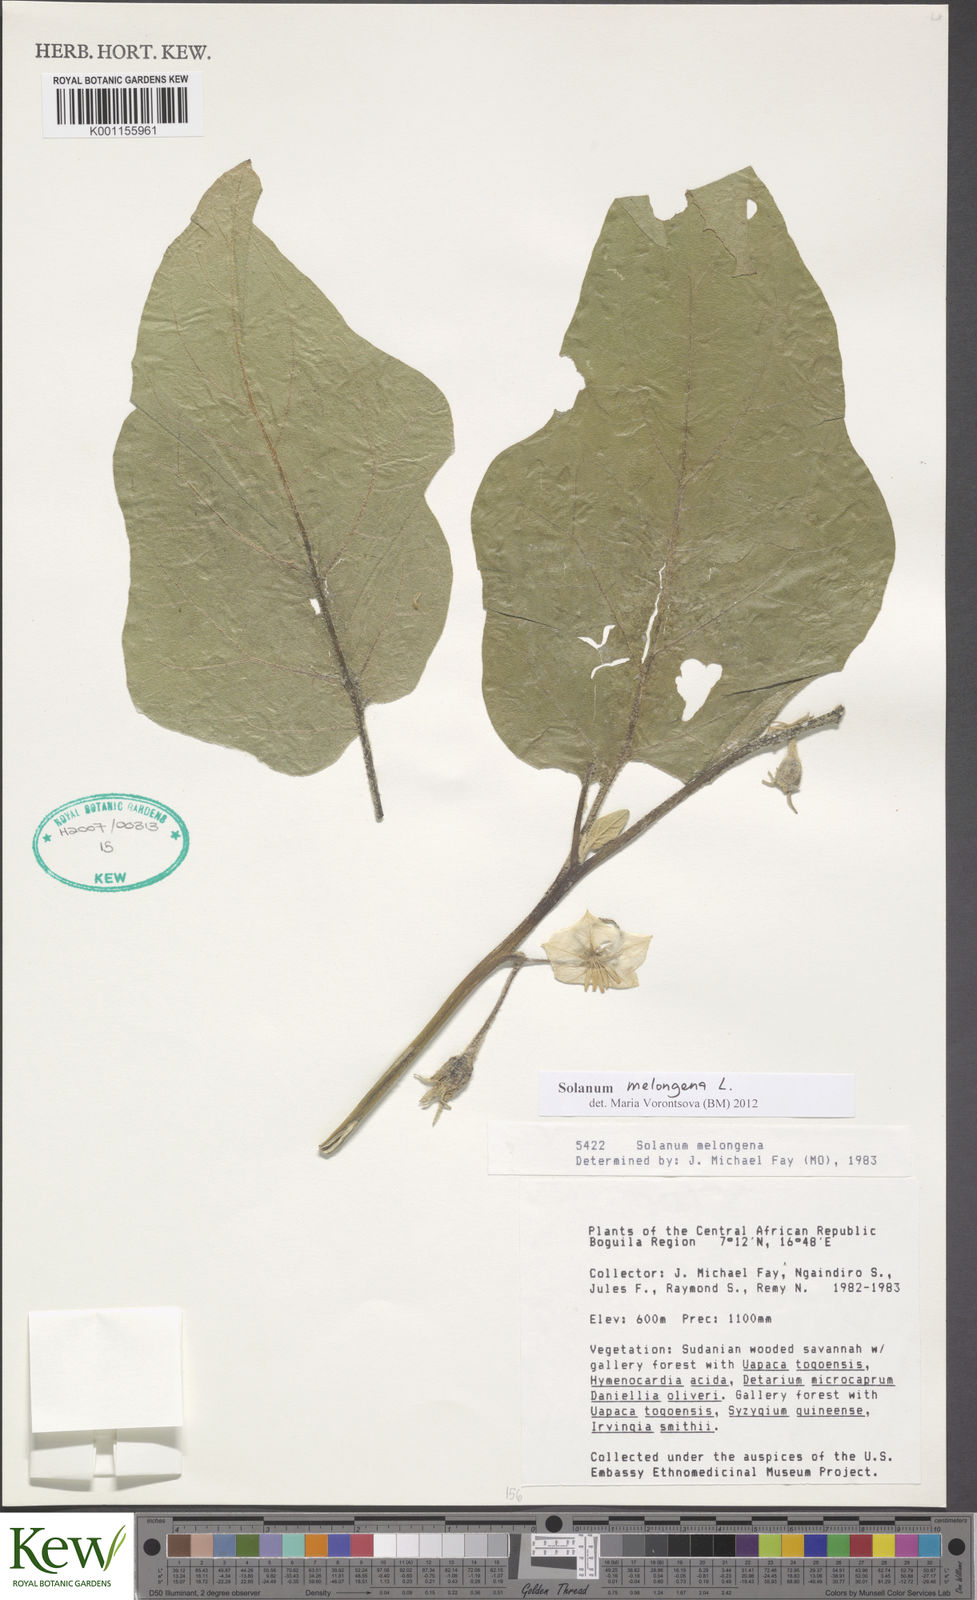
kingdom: Plantae
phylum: Tracheophyta
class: Magnoliopsida
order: Solanales
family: Solanaceae
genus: Solanum
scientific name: Solanum melongena
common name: Eggplant
